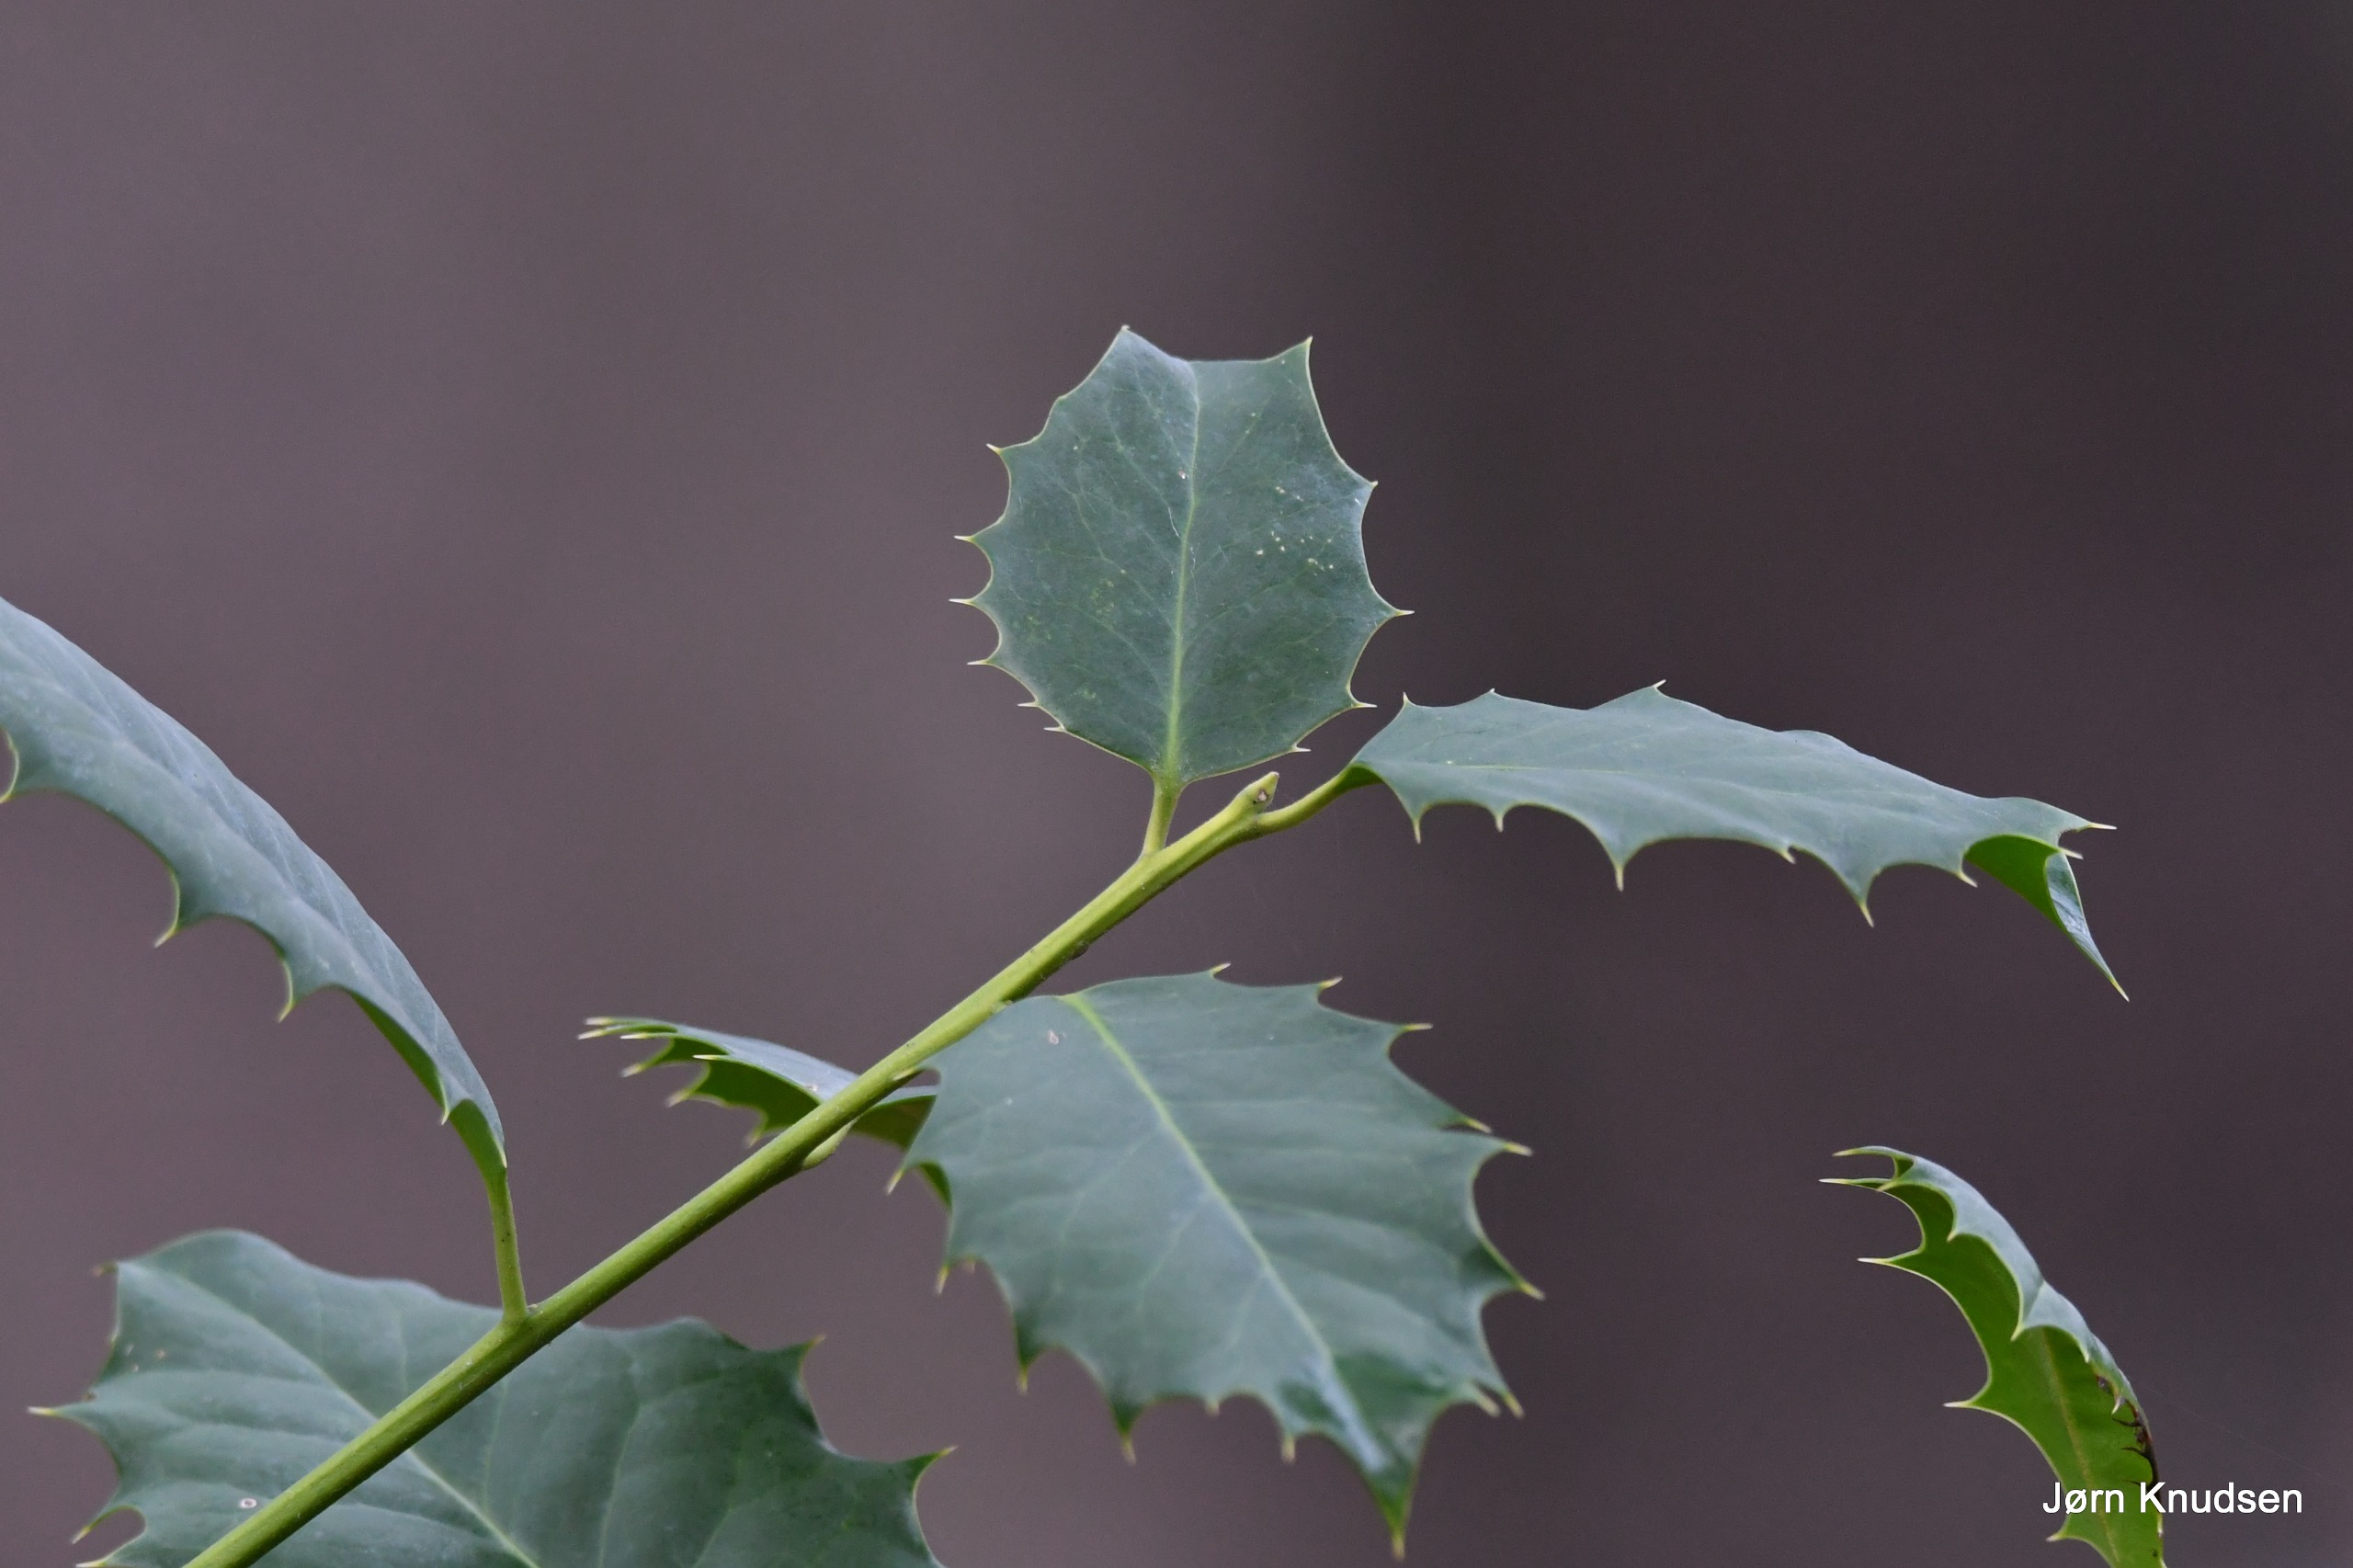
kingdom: Plantae
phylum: Tracheophyta
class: Magnoliopsida
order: Aquifoliales
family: Aquifoliaceae
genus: Ilex
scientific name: Ilex aquifolium
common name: Kristtorn
